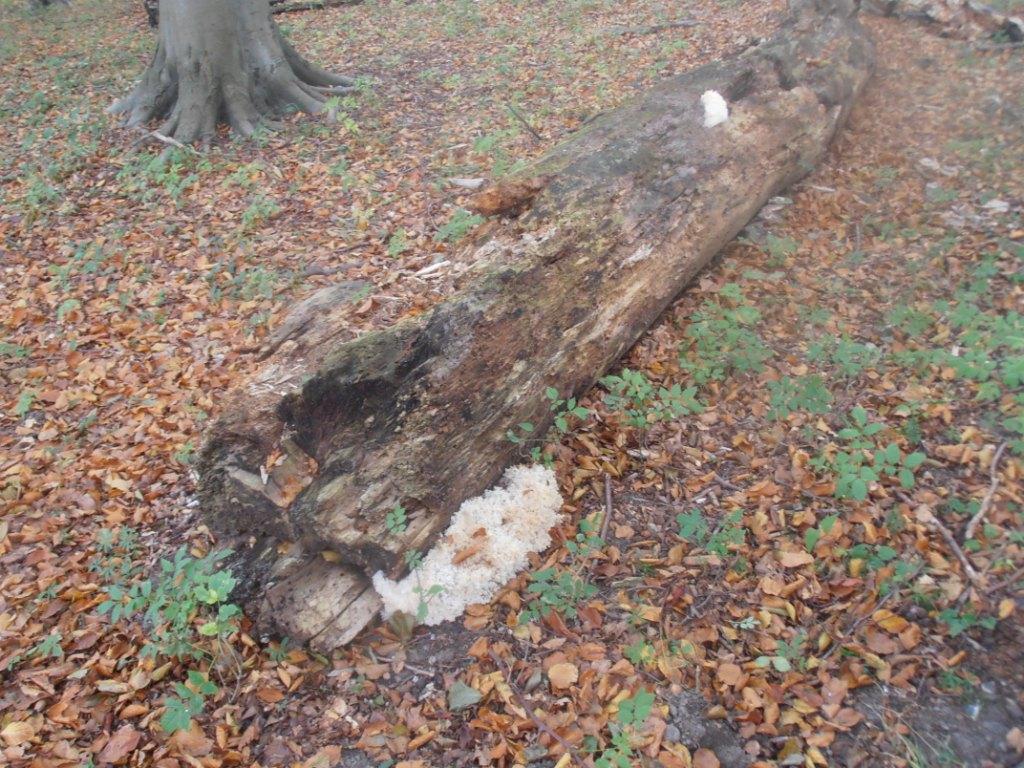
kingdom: Fungi
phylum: Basidiomycota
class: Agaricomycetes
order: Russulales
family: Hericiaceae
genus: Hericium
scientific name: Hericium coralloides
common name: koralpigsvamp
